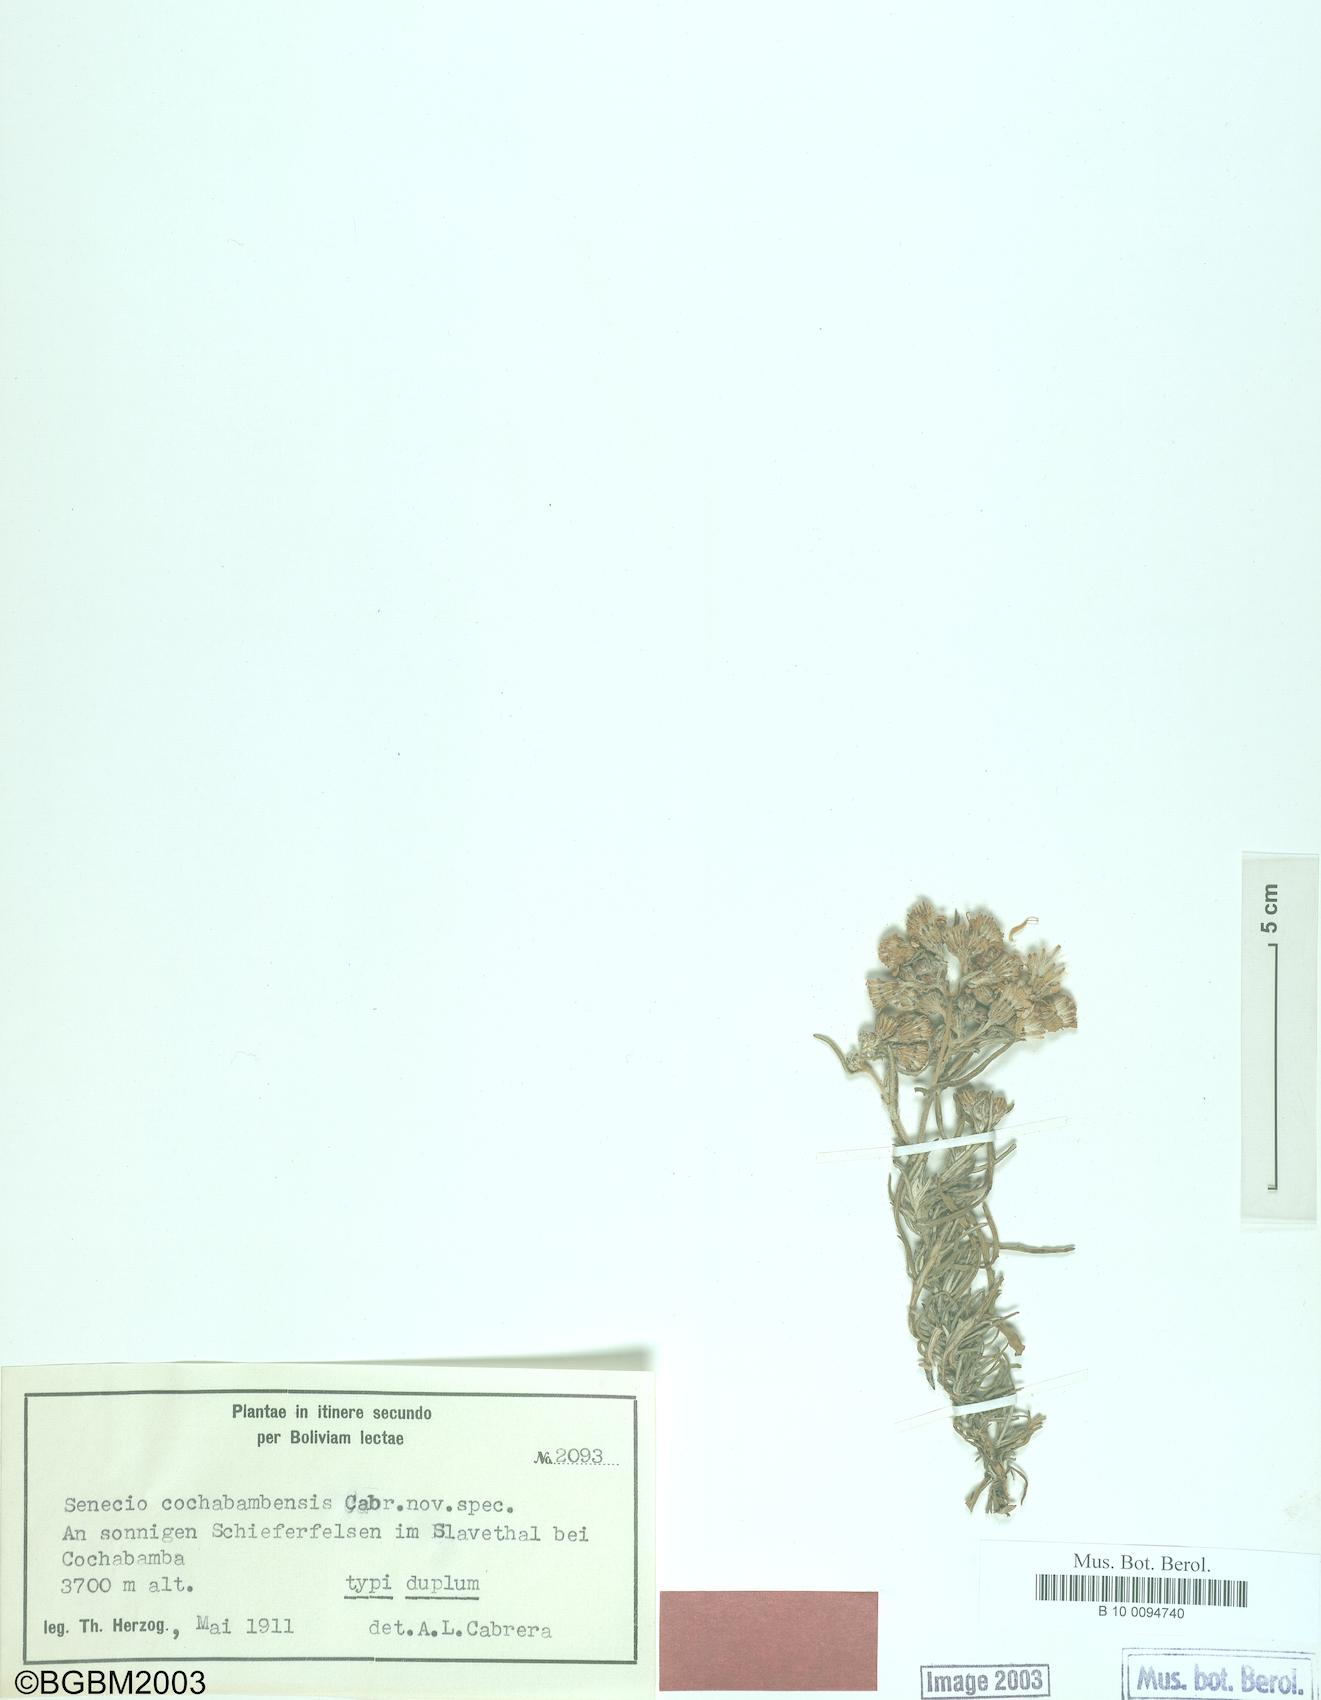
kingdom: Plantae
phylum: Tracheophyta
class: Magnoliopsida
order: Asterales
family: Asteraceae
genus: Senecio
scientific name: Senecio cochabambensis
